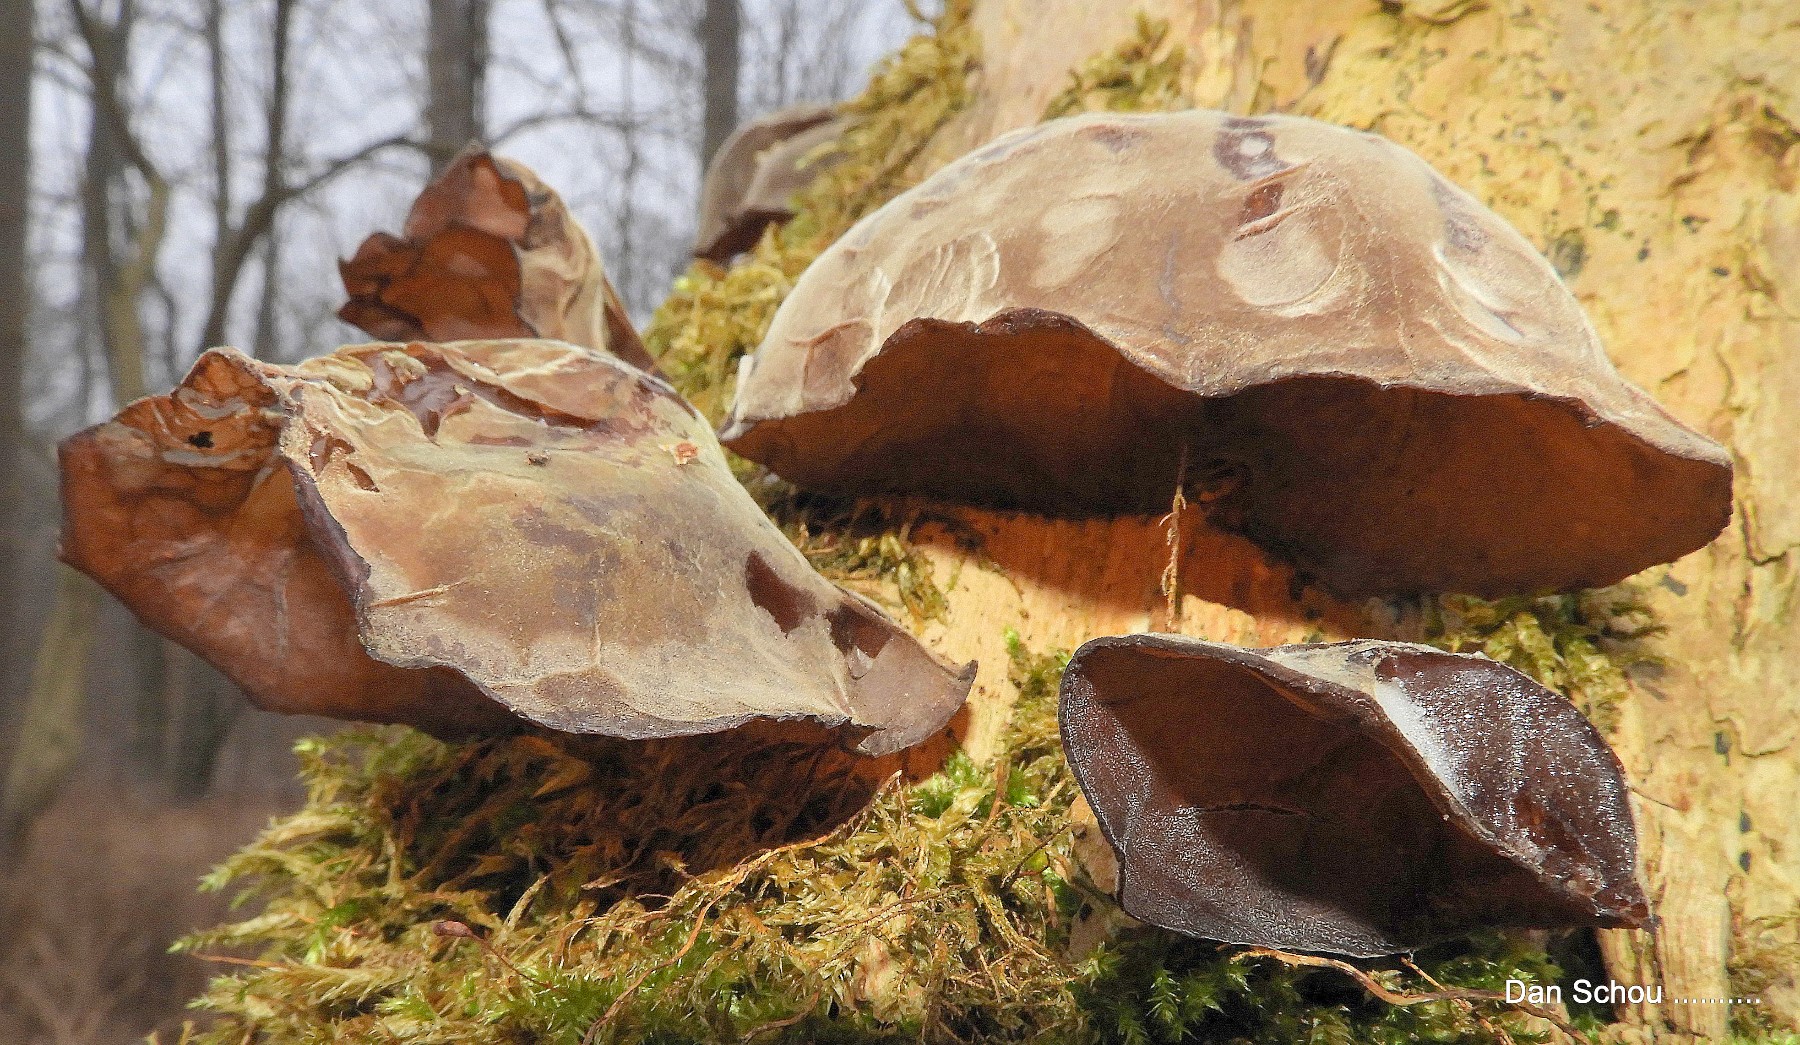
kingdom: Fungi
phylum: Basidiomycota
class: Agaricomycetes
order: Auriculariales
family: Auriculariaceae
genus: Auricularia
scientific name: Auricularia auricula-judae
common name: almindelig judasøre
